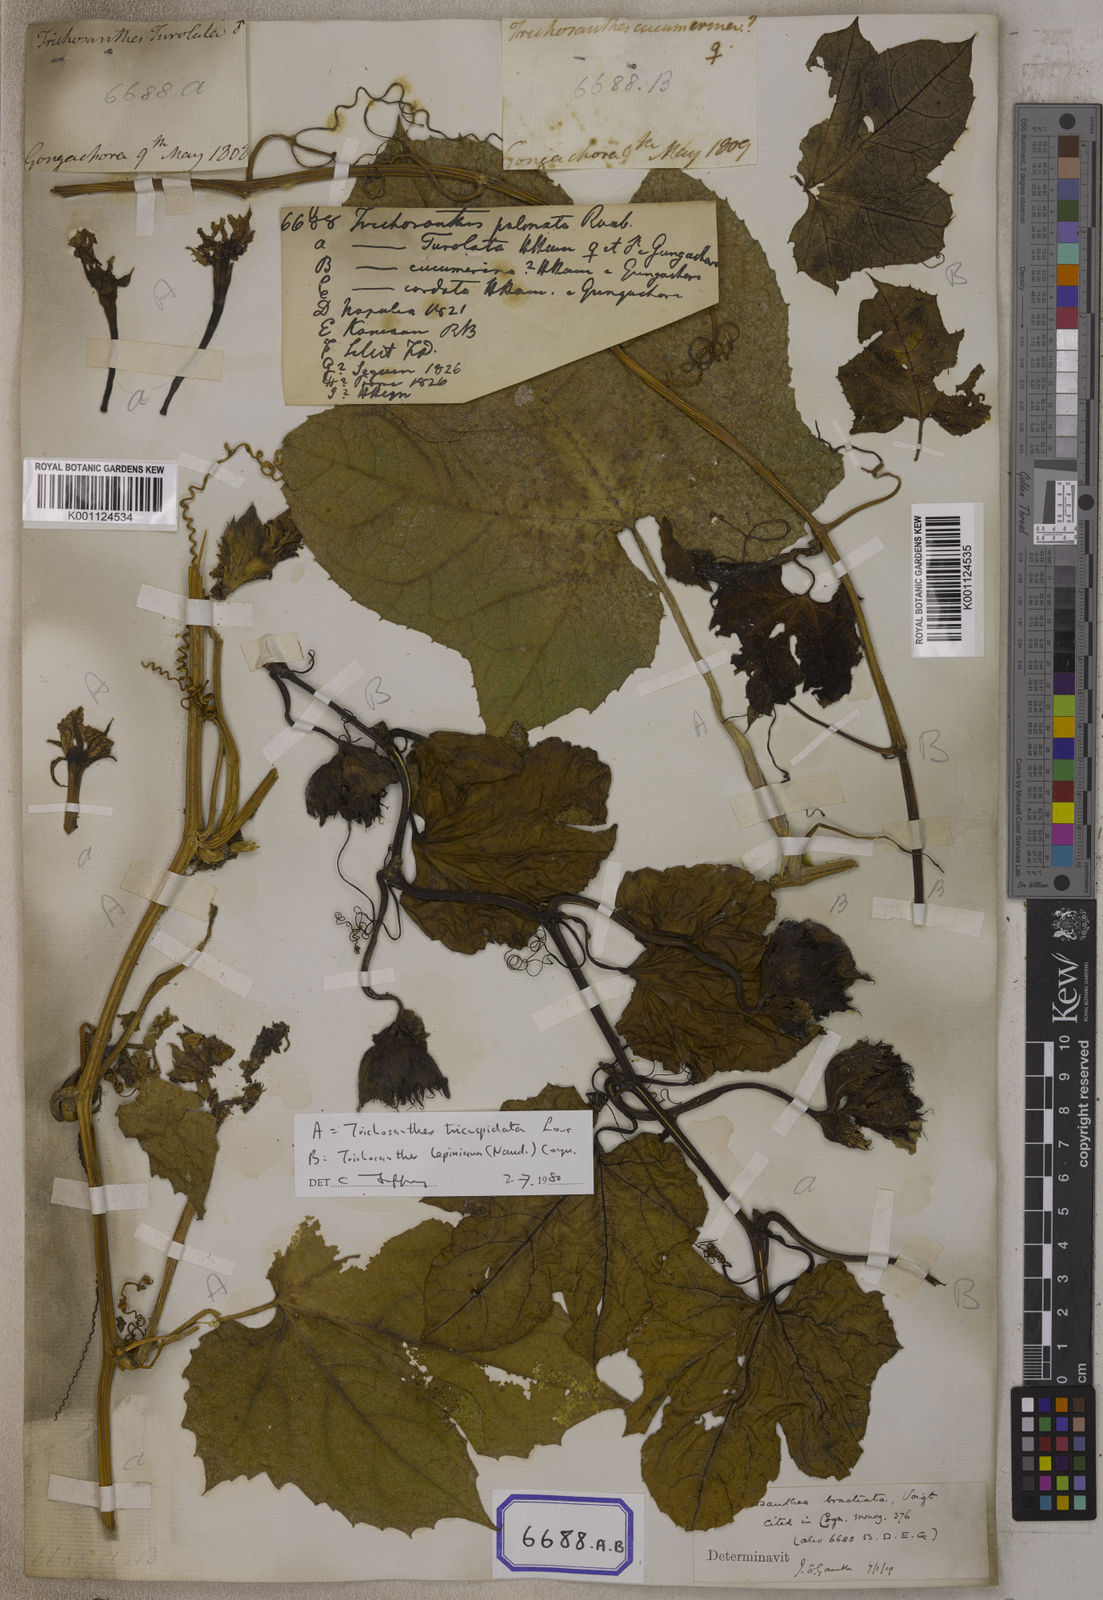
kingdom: Plantae
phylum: Tracheophyta
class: Magnoliopsida
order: Cucurbitales
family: Cucurbitaceae
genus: Trichosanthes
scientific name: Trichosanthes
